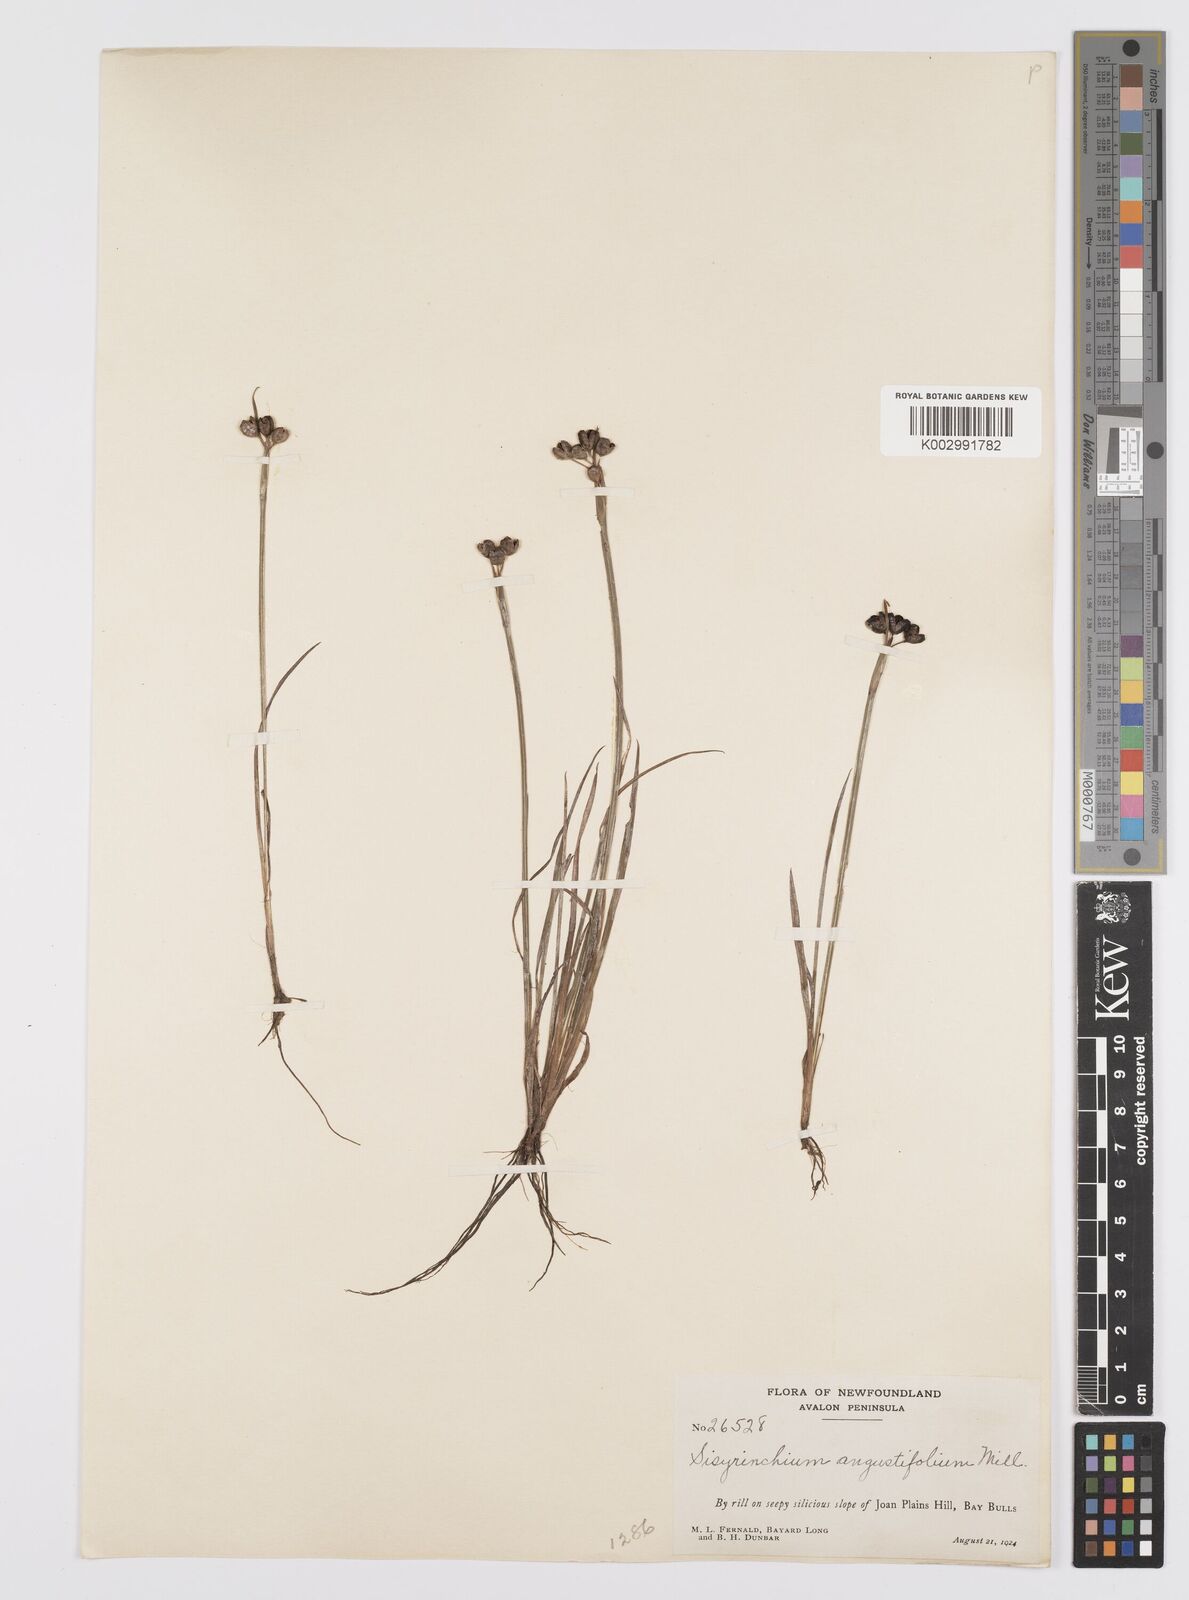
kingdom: Plantae
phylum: Tracheophyta
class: Liliopsida
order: Asparagales
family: Iridaceae
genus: Sisyrinchium
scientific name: Sisyrinchium bermudiana
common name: Blue-eyed-grass
